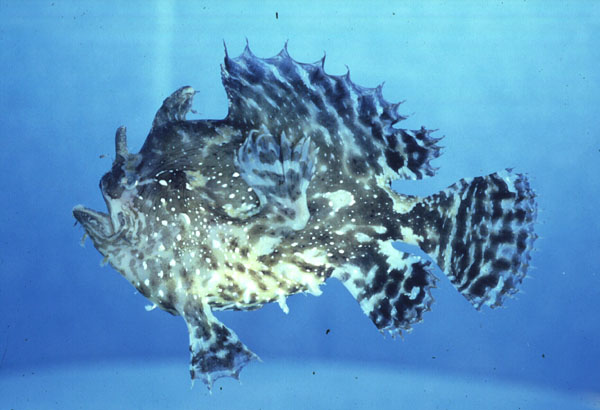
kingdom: Animalia
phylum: Chordata
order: Lophiiformes
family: Antennariidae
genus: Histrio
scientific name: Histrio histrio
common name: Sargassumfish
